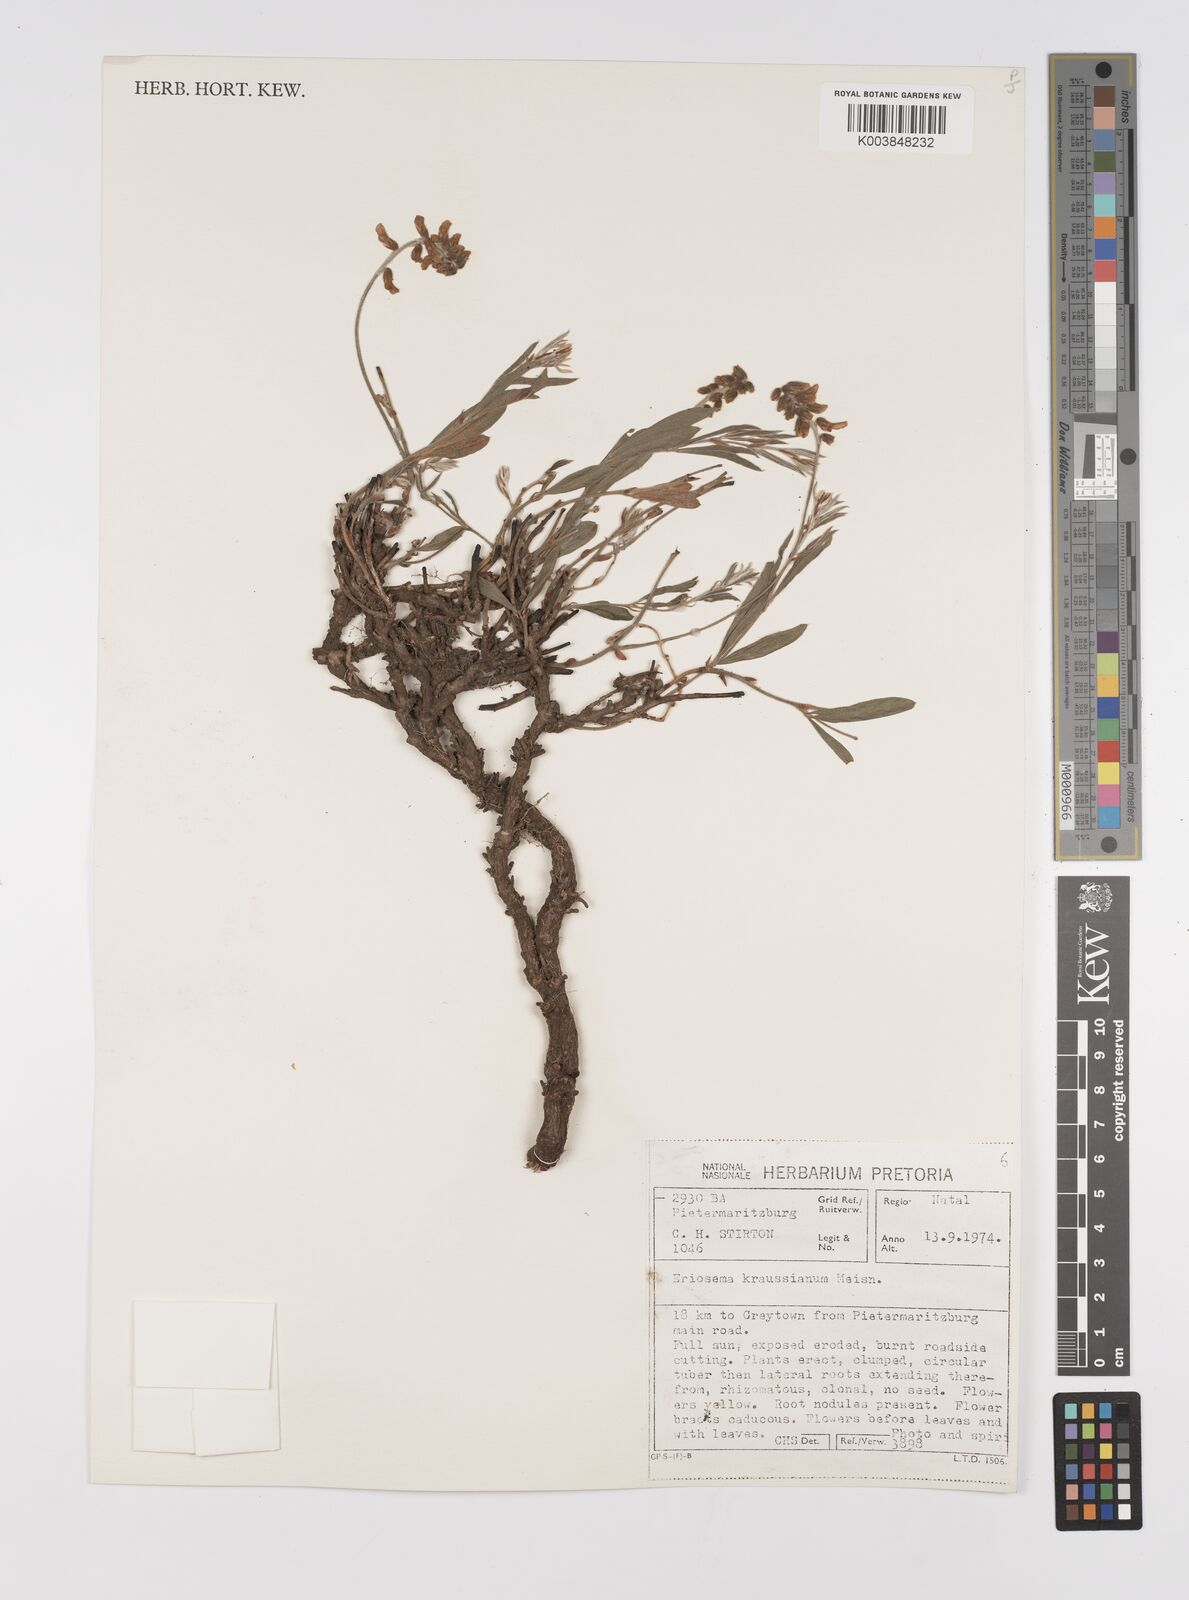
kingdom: Plantae
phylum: Tracheophyta
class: Magnoliopsida
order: Fabales
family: Fabaceae
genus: Eriosema
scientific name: Eriosema kraussianum
